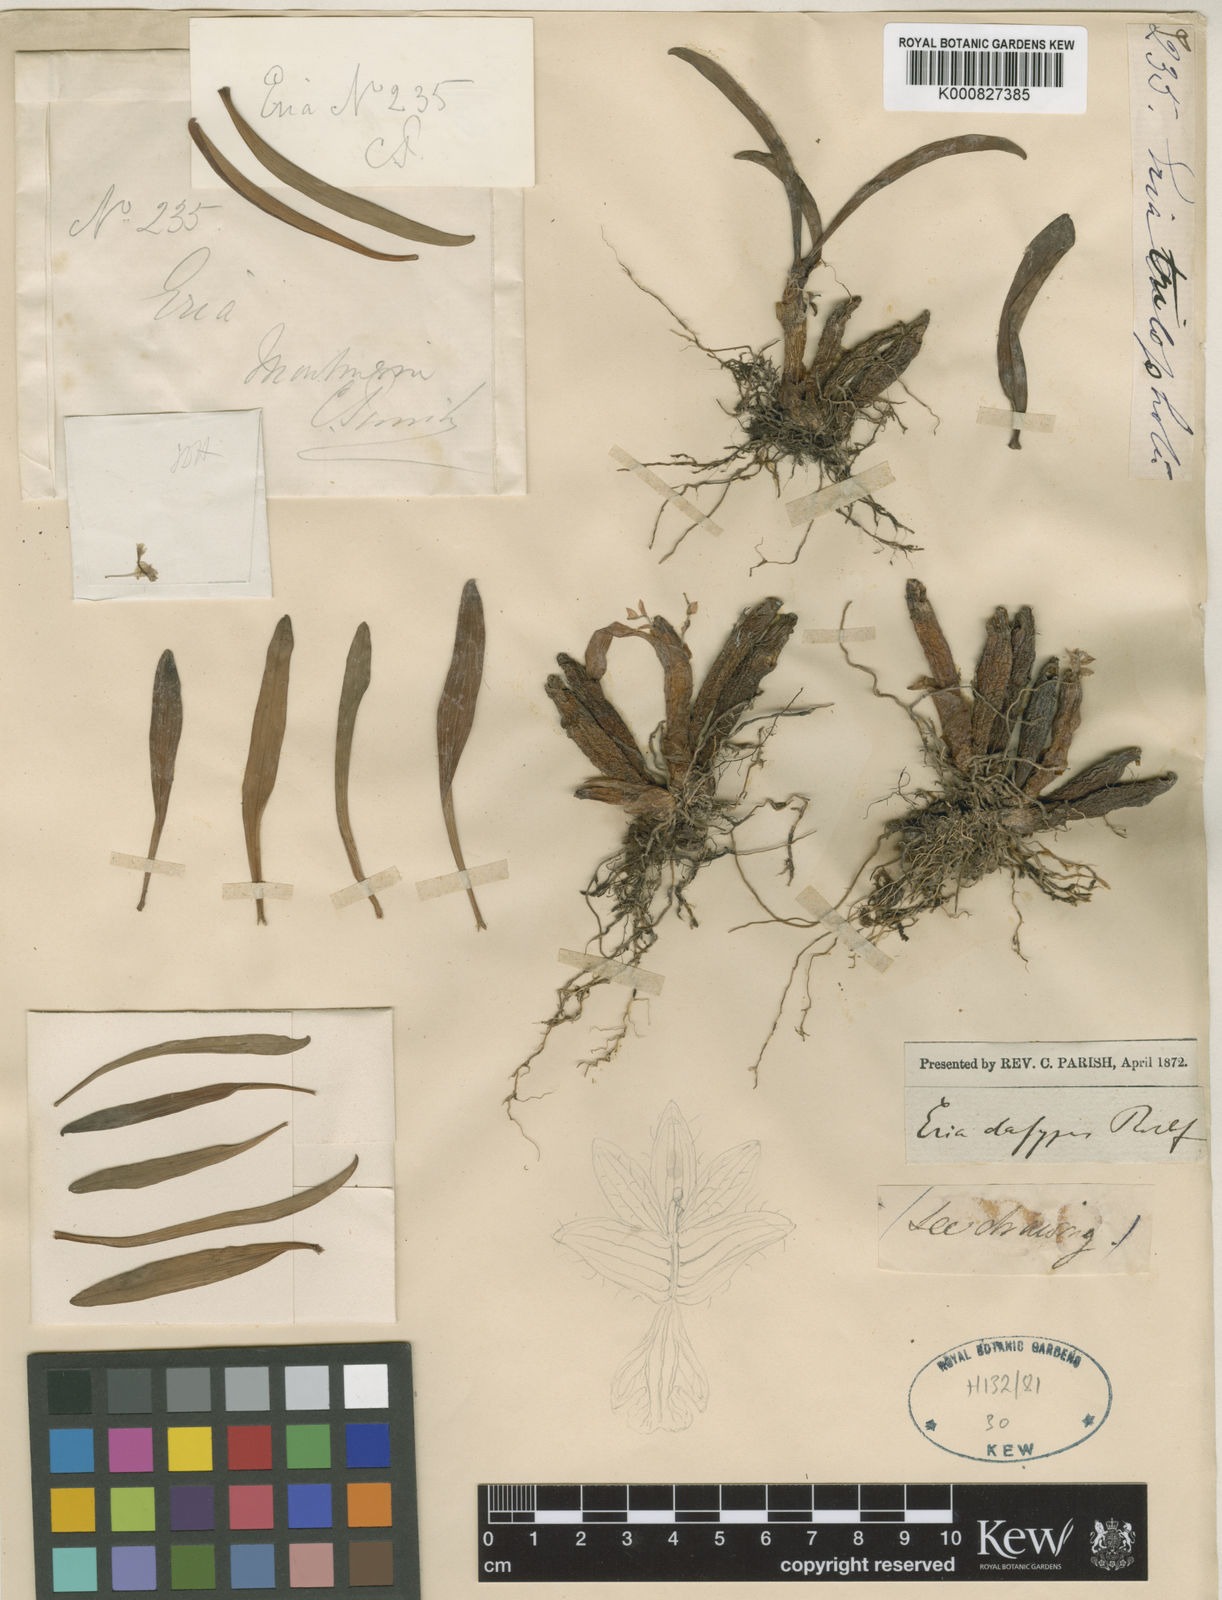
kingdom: Plantae
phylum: Tracheophyta
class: Liliopsida
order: Asparagales
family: Orchidaceae
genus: Pinalia
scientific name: Pinalia dasypus
